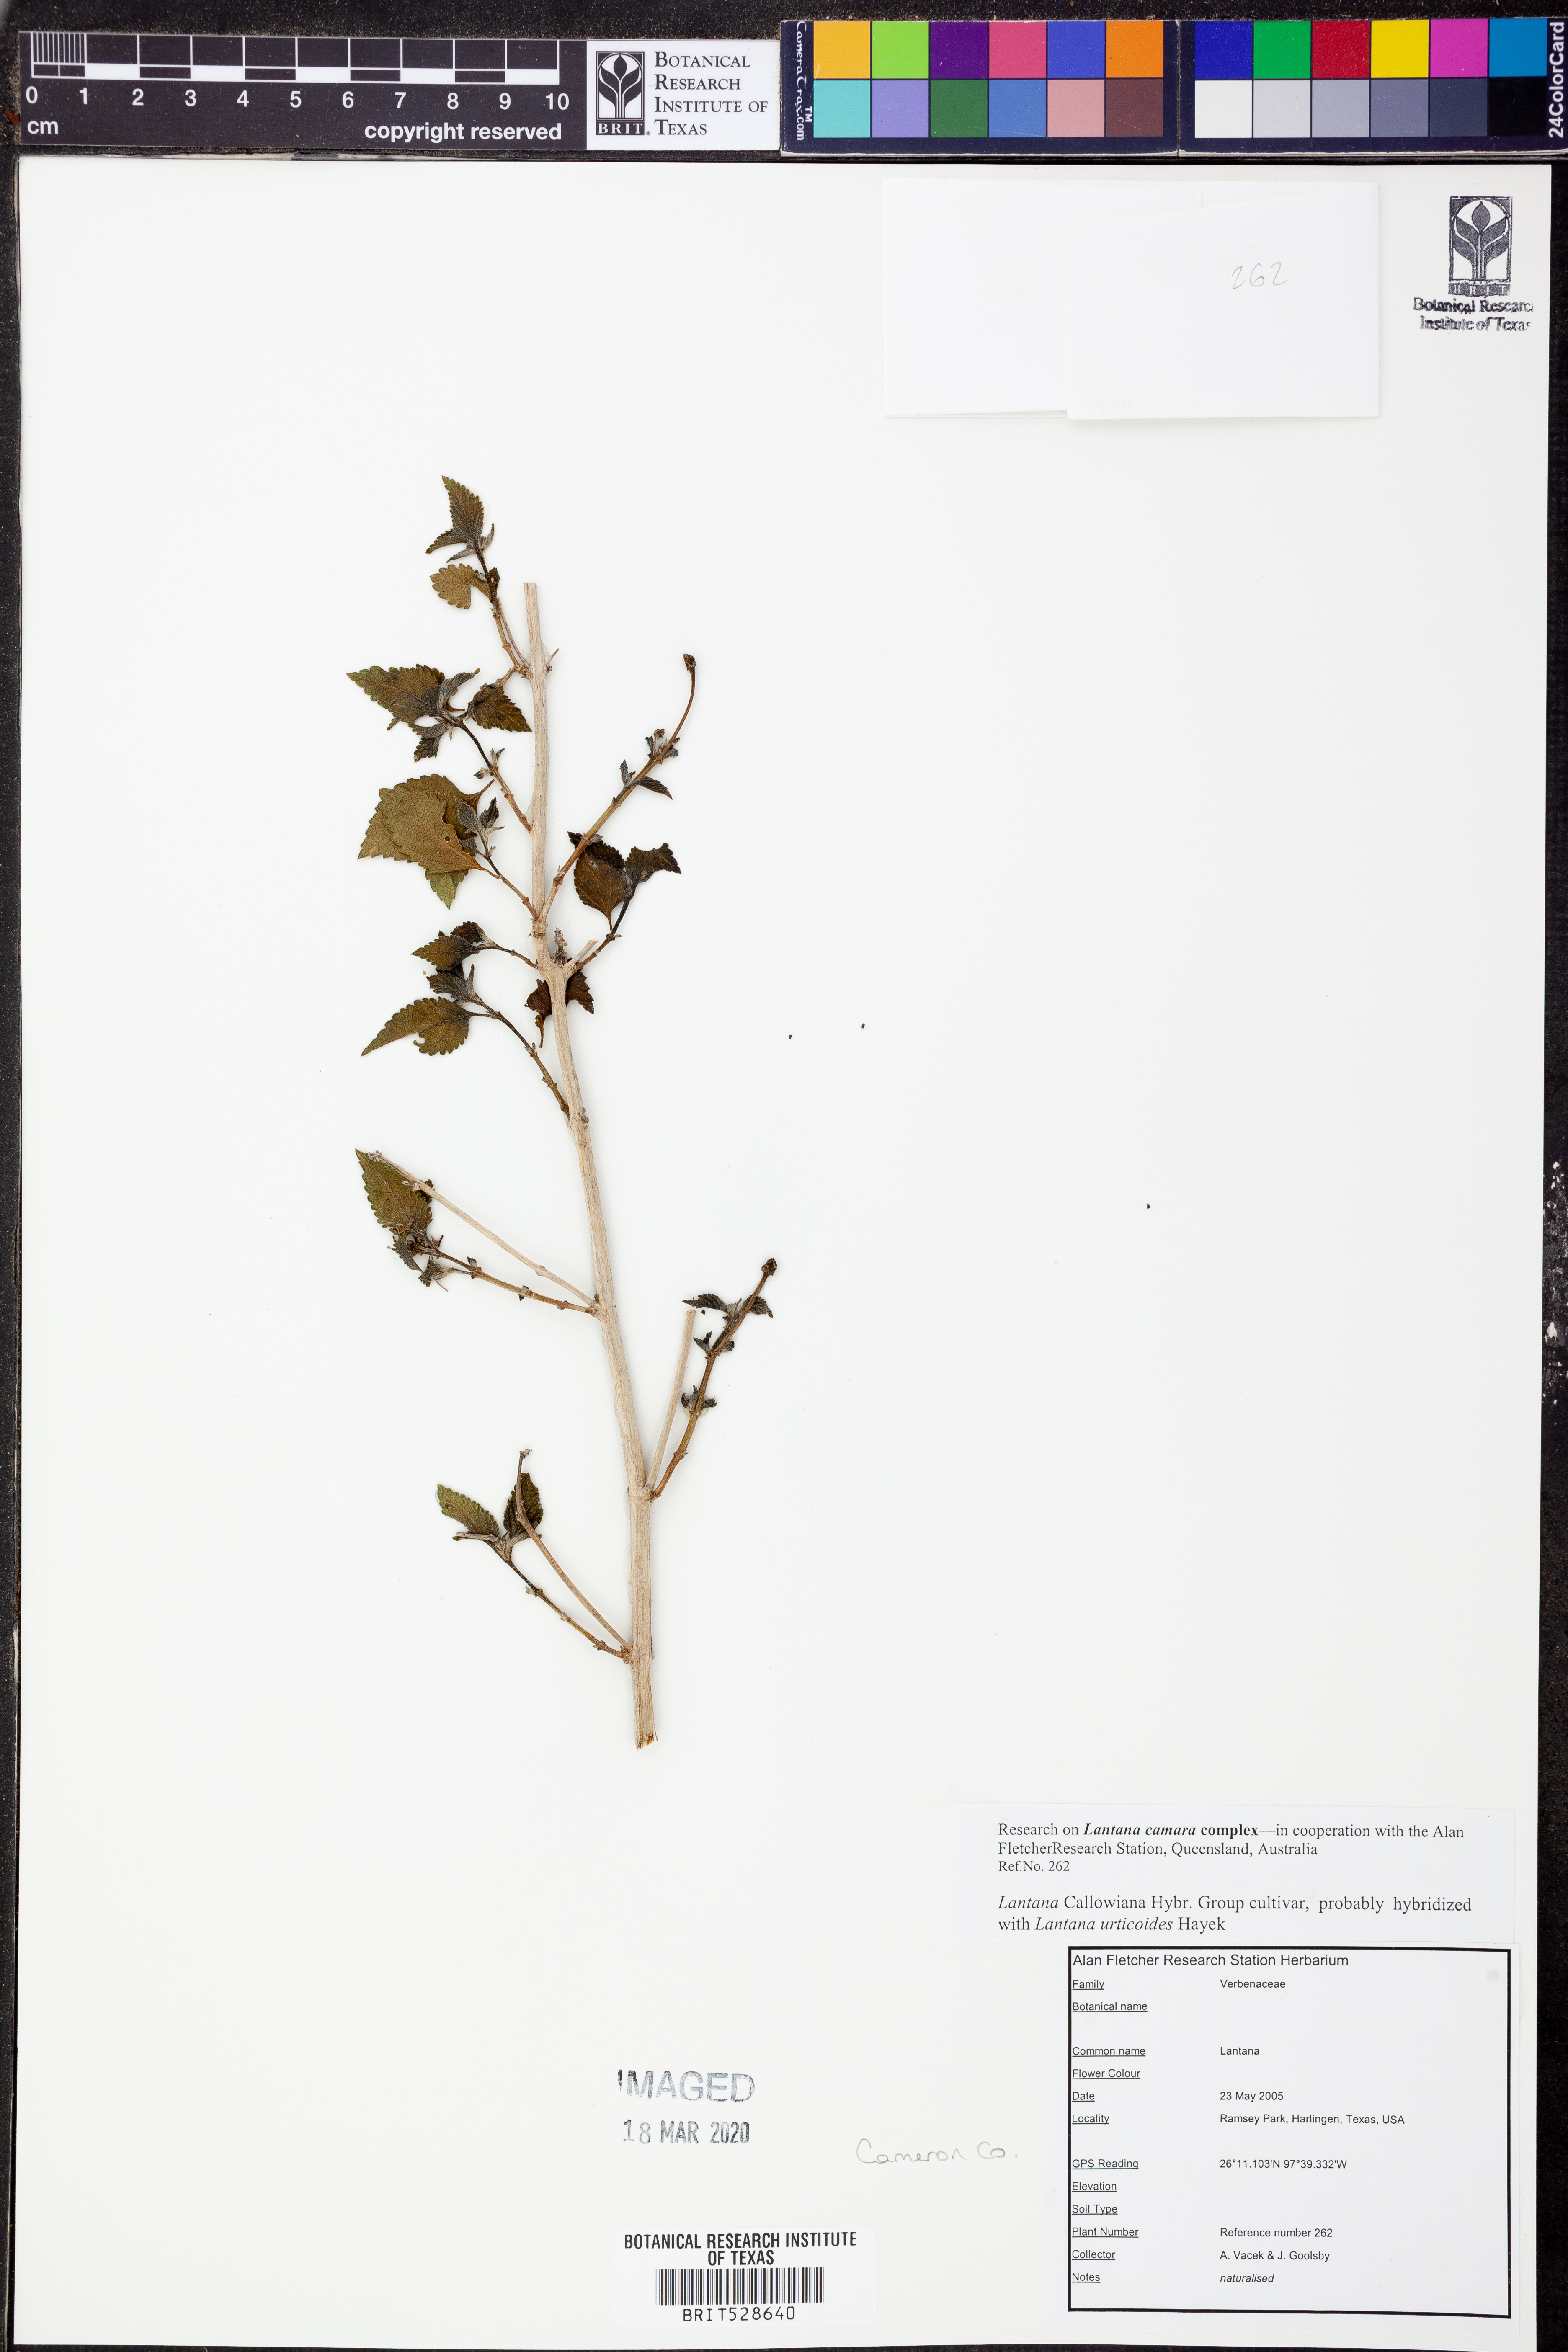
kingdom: Plantae
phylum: Tracheophyta
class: Magnoliopsida
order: Lamiales
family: Verbenaceae
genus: Lantana
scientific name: Lantana
